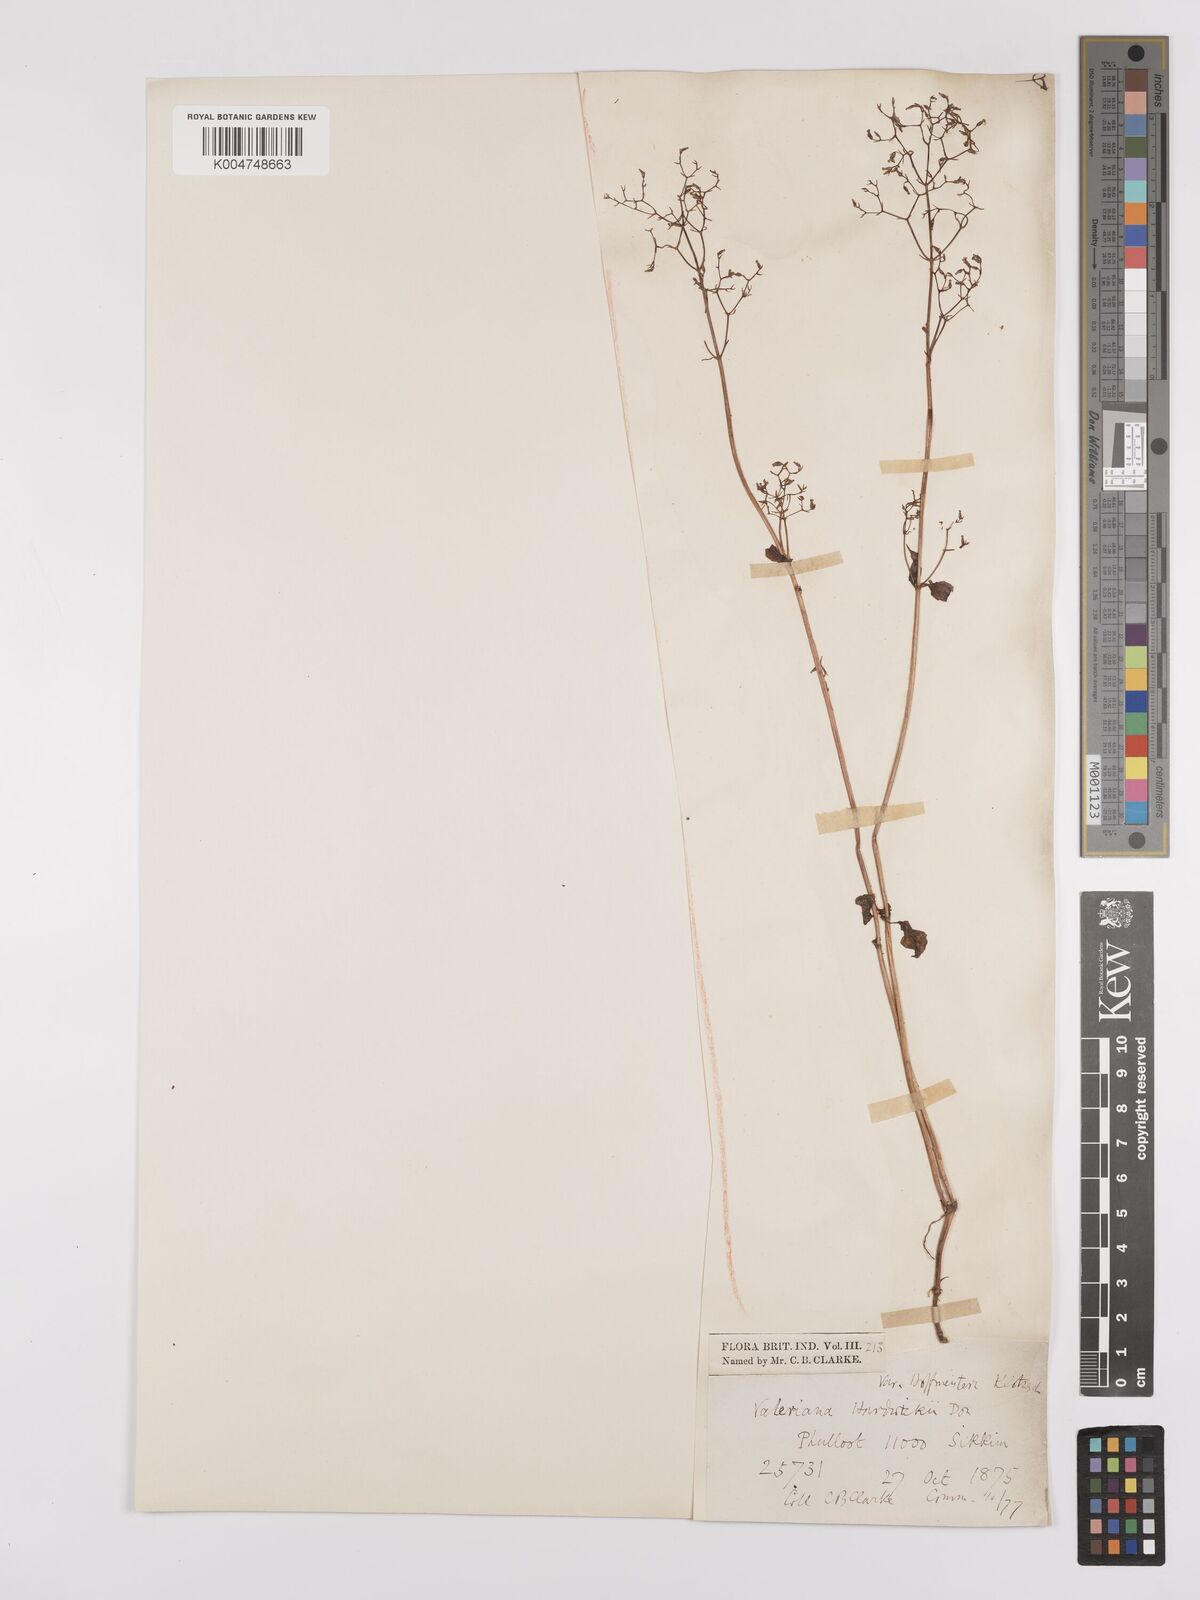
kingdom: Plantae
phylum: Tracheophyta
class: Magnoliopsida
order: Dipsacales
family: Caprifoliaceae
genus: Valeriana
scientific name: Valeriana hardwickei
